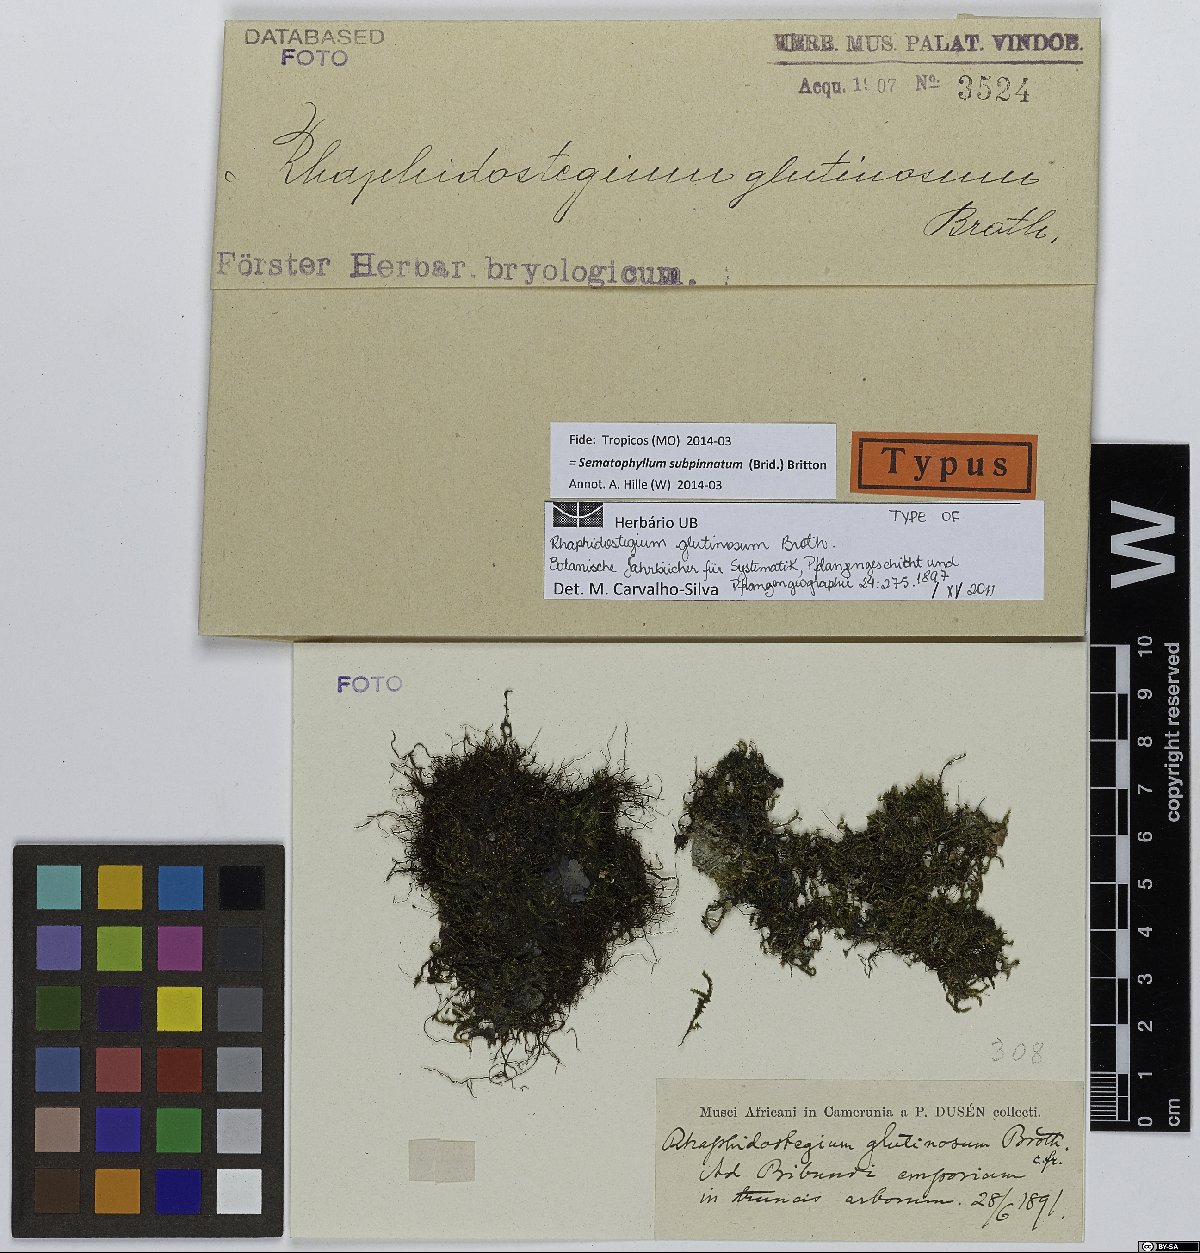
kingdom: Plantae
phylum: Bryophyta
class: Bryopsida
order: Hypnales
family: Sematophyllaceae
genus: Brittonodoxa
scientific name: Brittonodoxa subpinnata
